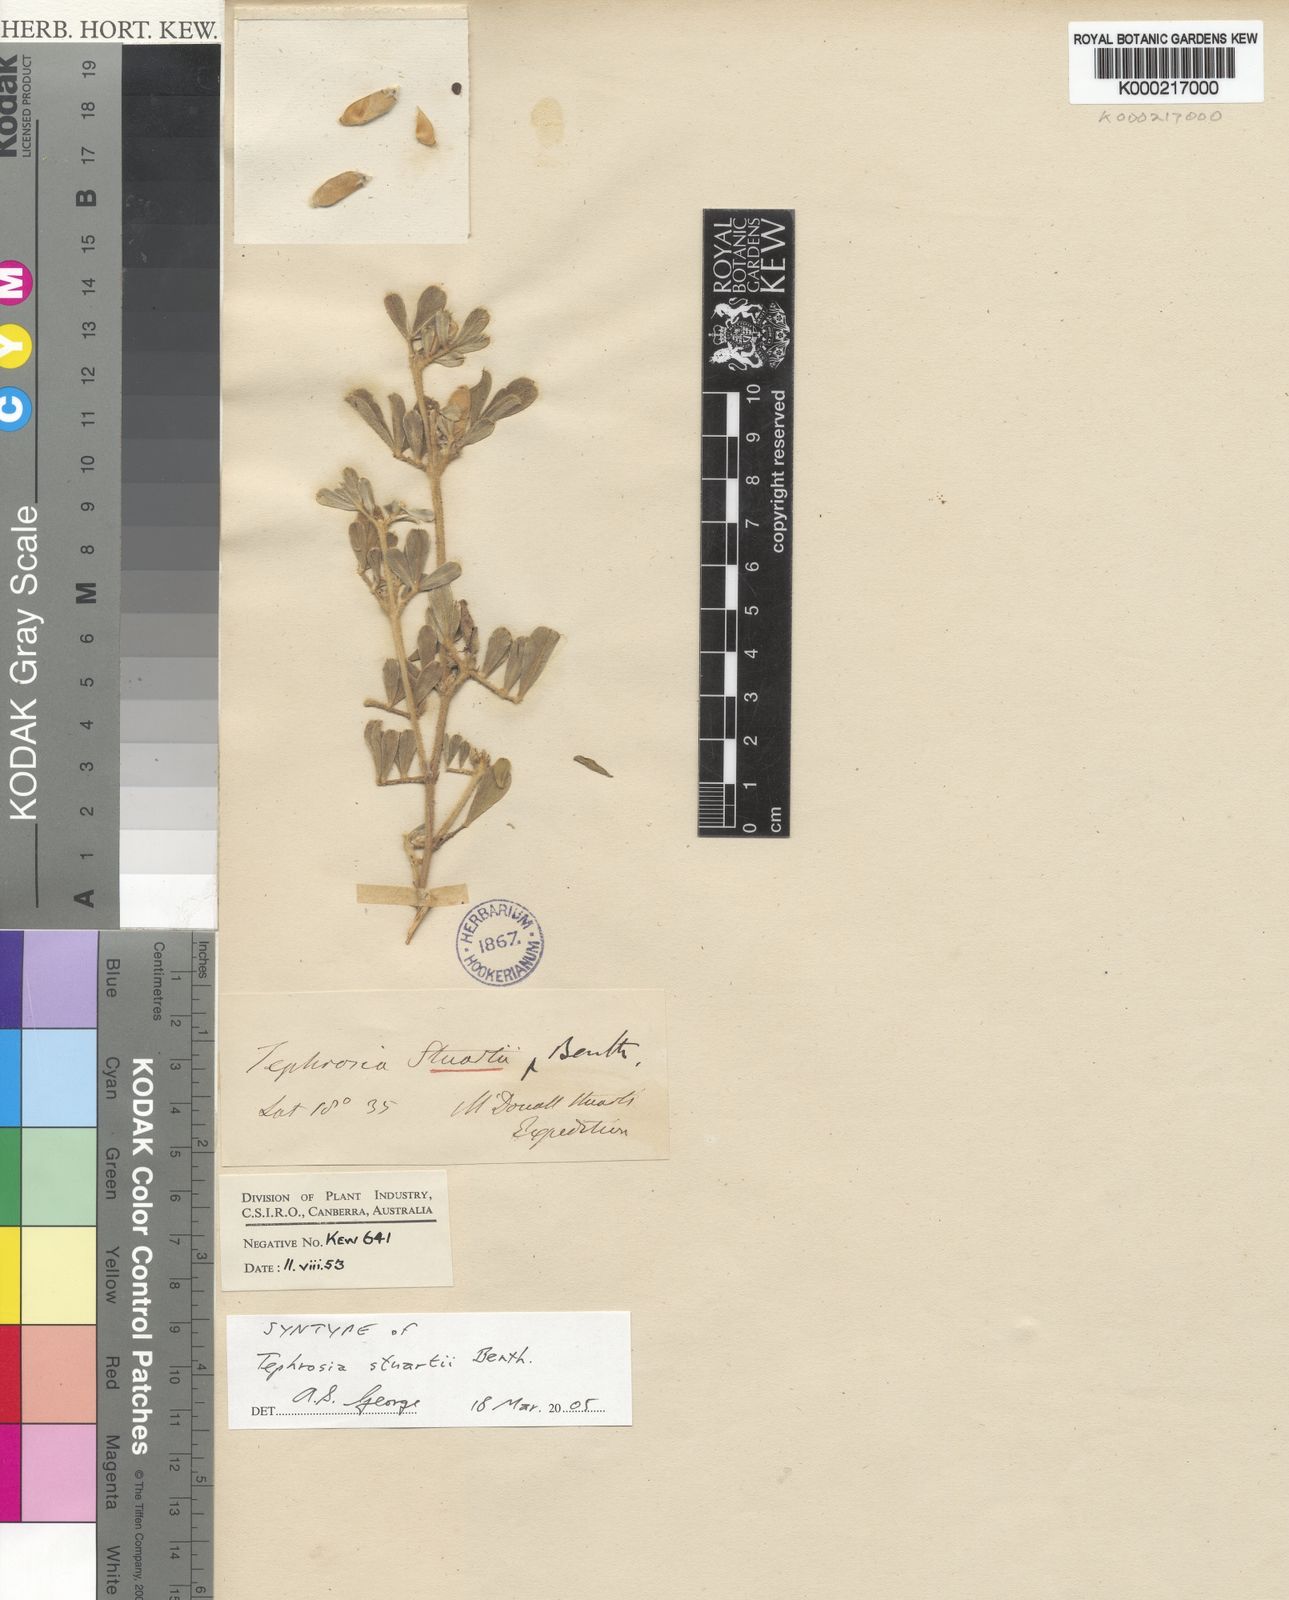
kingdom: Plantae
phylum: Tracheophyta
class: Magnoliopsida
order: Fabales
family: Fabaceae
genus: Tephrosia
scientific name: Tephrosia stuartii
